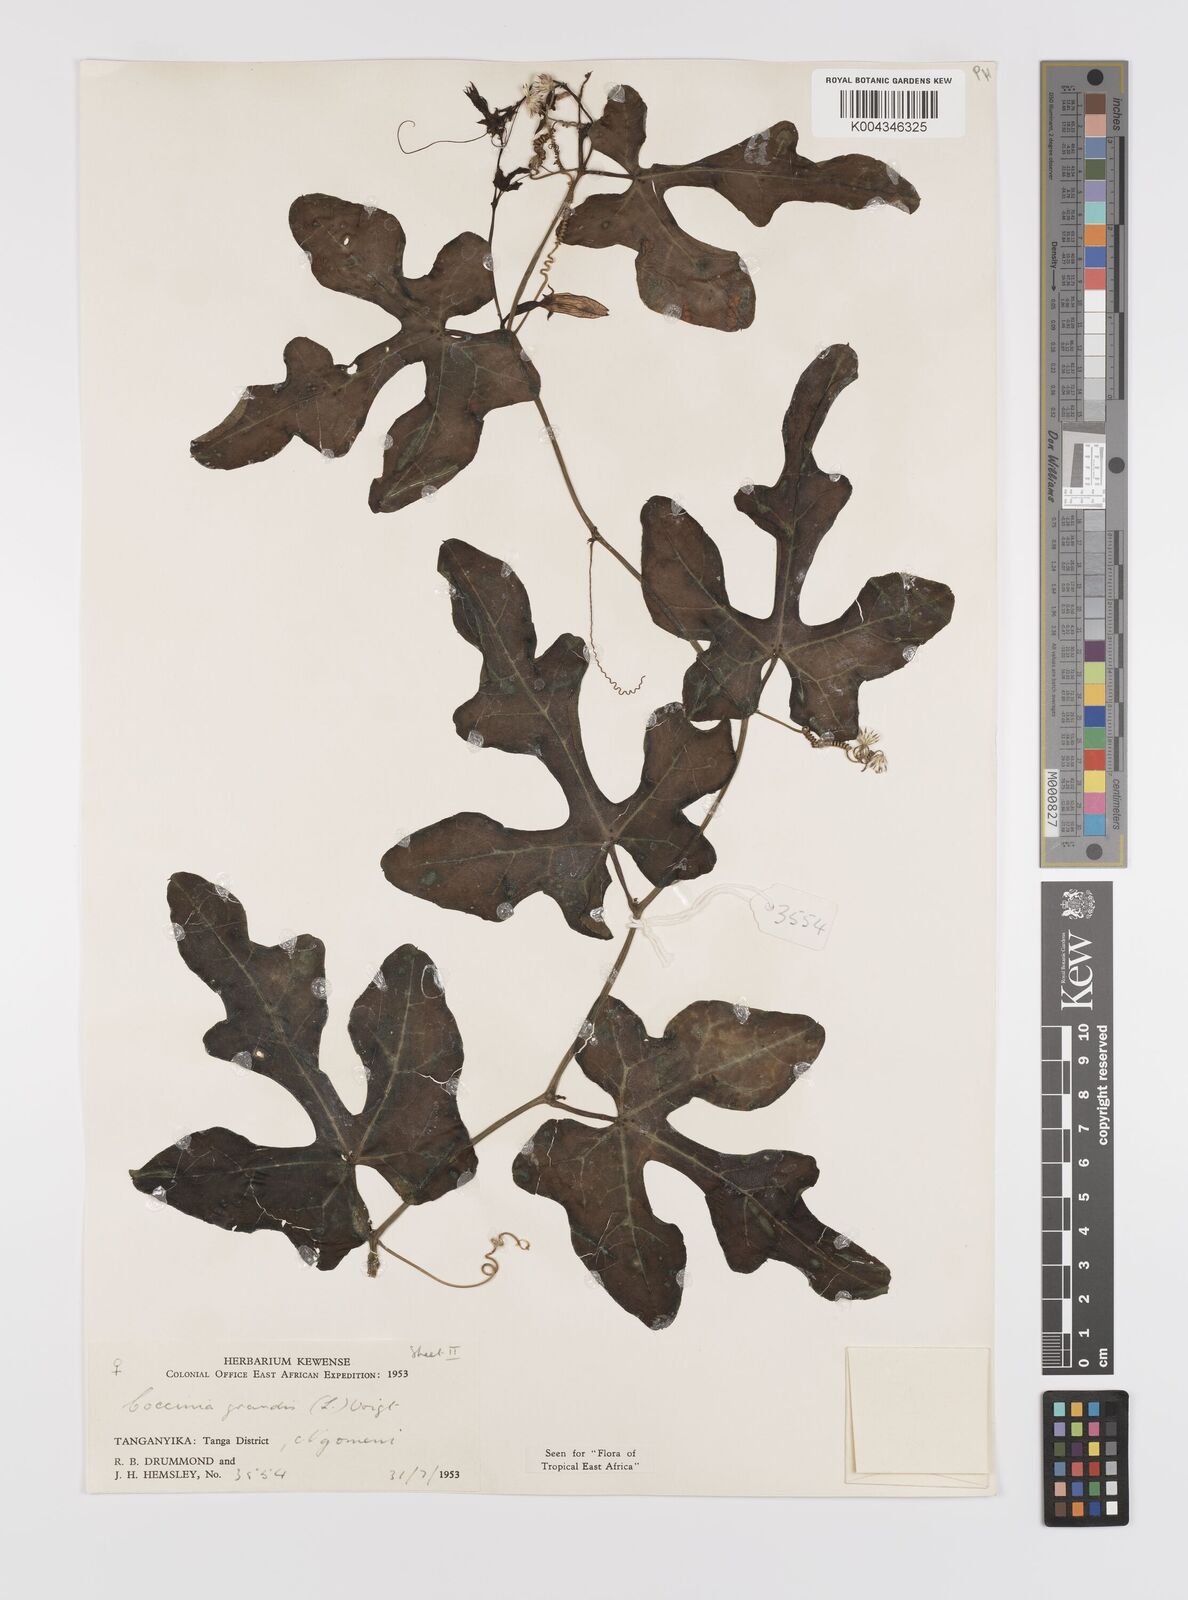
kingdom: Plantae
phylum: Tracheophyta
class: Magnoliopsida
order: Cucurbitales
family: Cucurbitaceae
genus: Coccinia
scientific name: Coccinia grandis
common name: Ivy gourd
